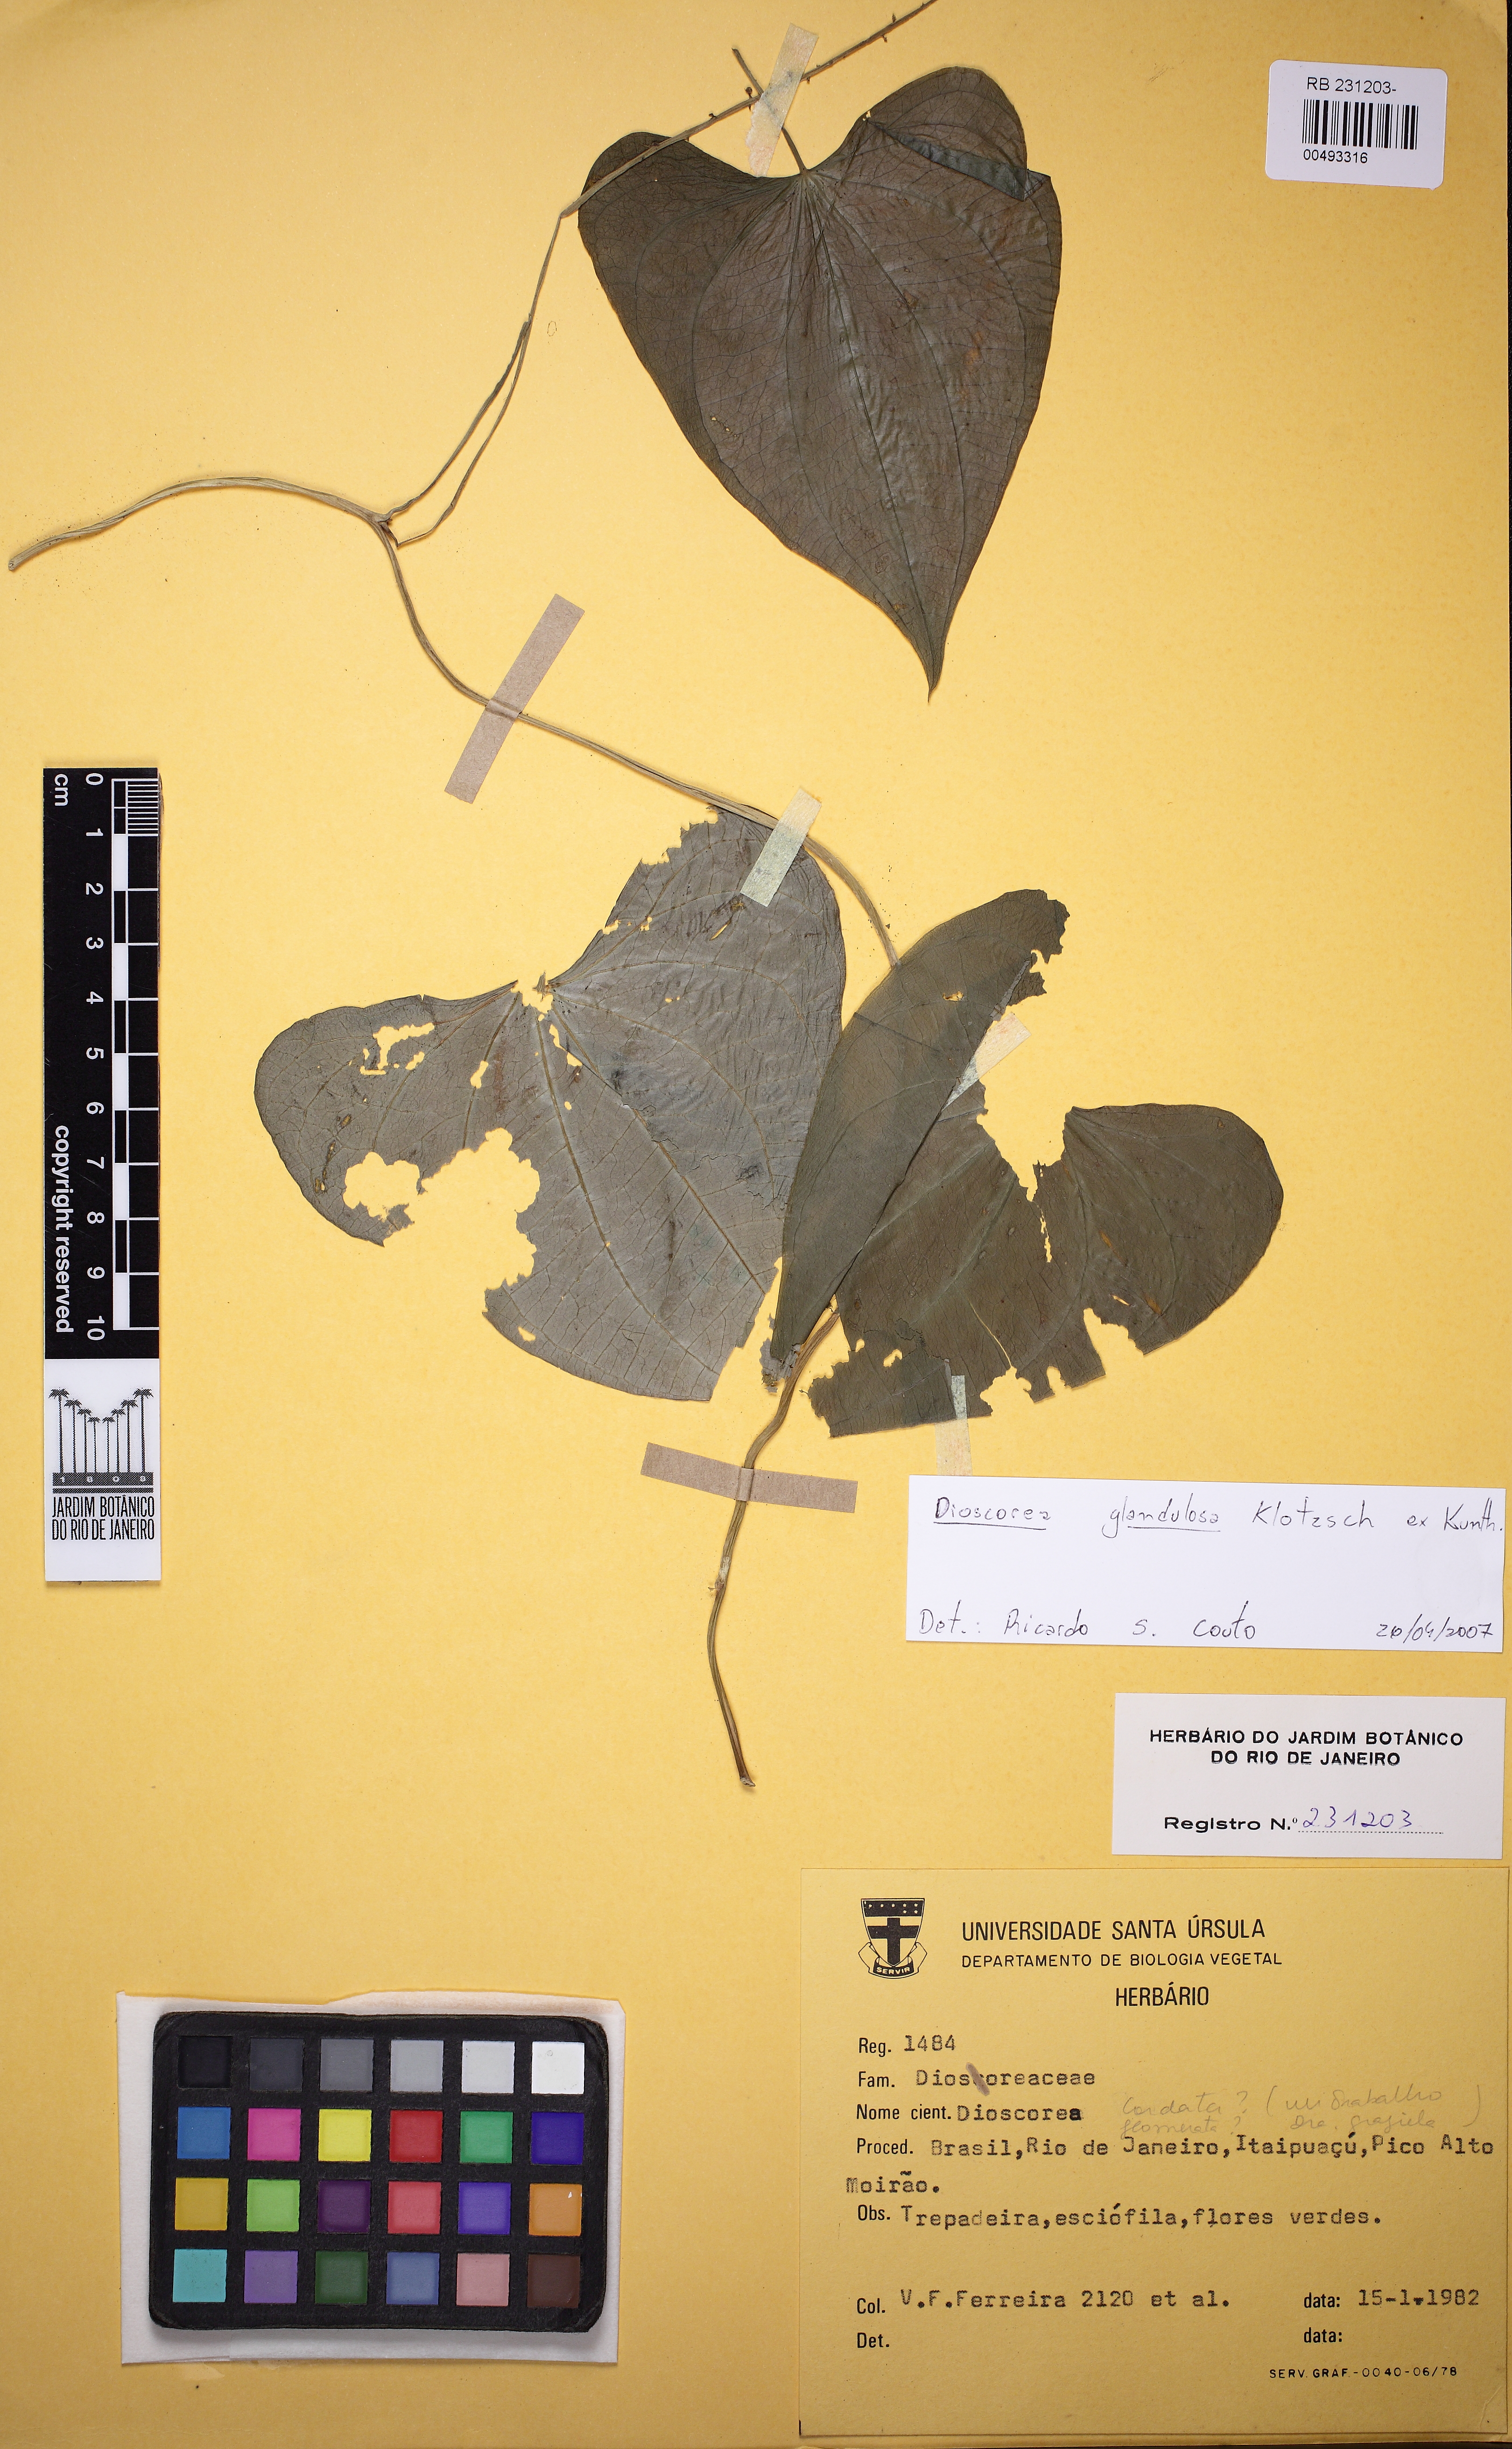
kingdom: Plantae
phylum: Tracheophyta
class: Liliopsida
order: Dioscoreales
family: Dioscoreaceae
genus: Dioscorea
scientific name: Dioscorea piperifolia
